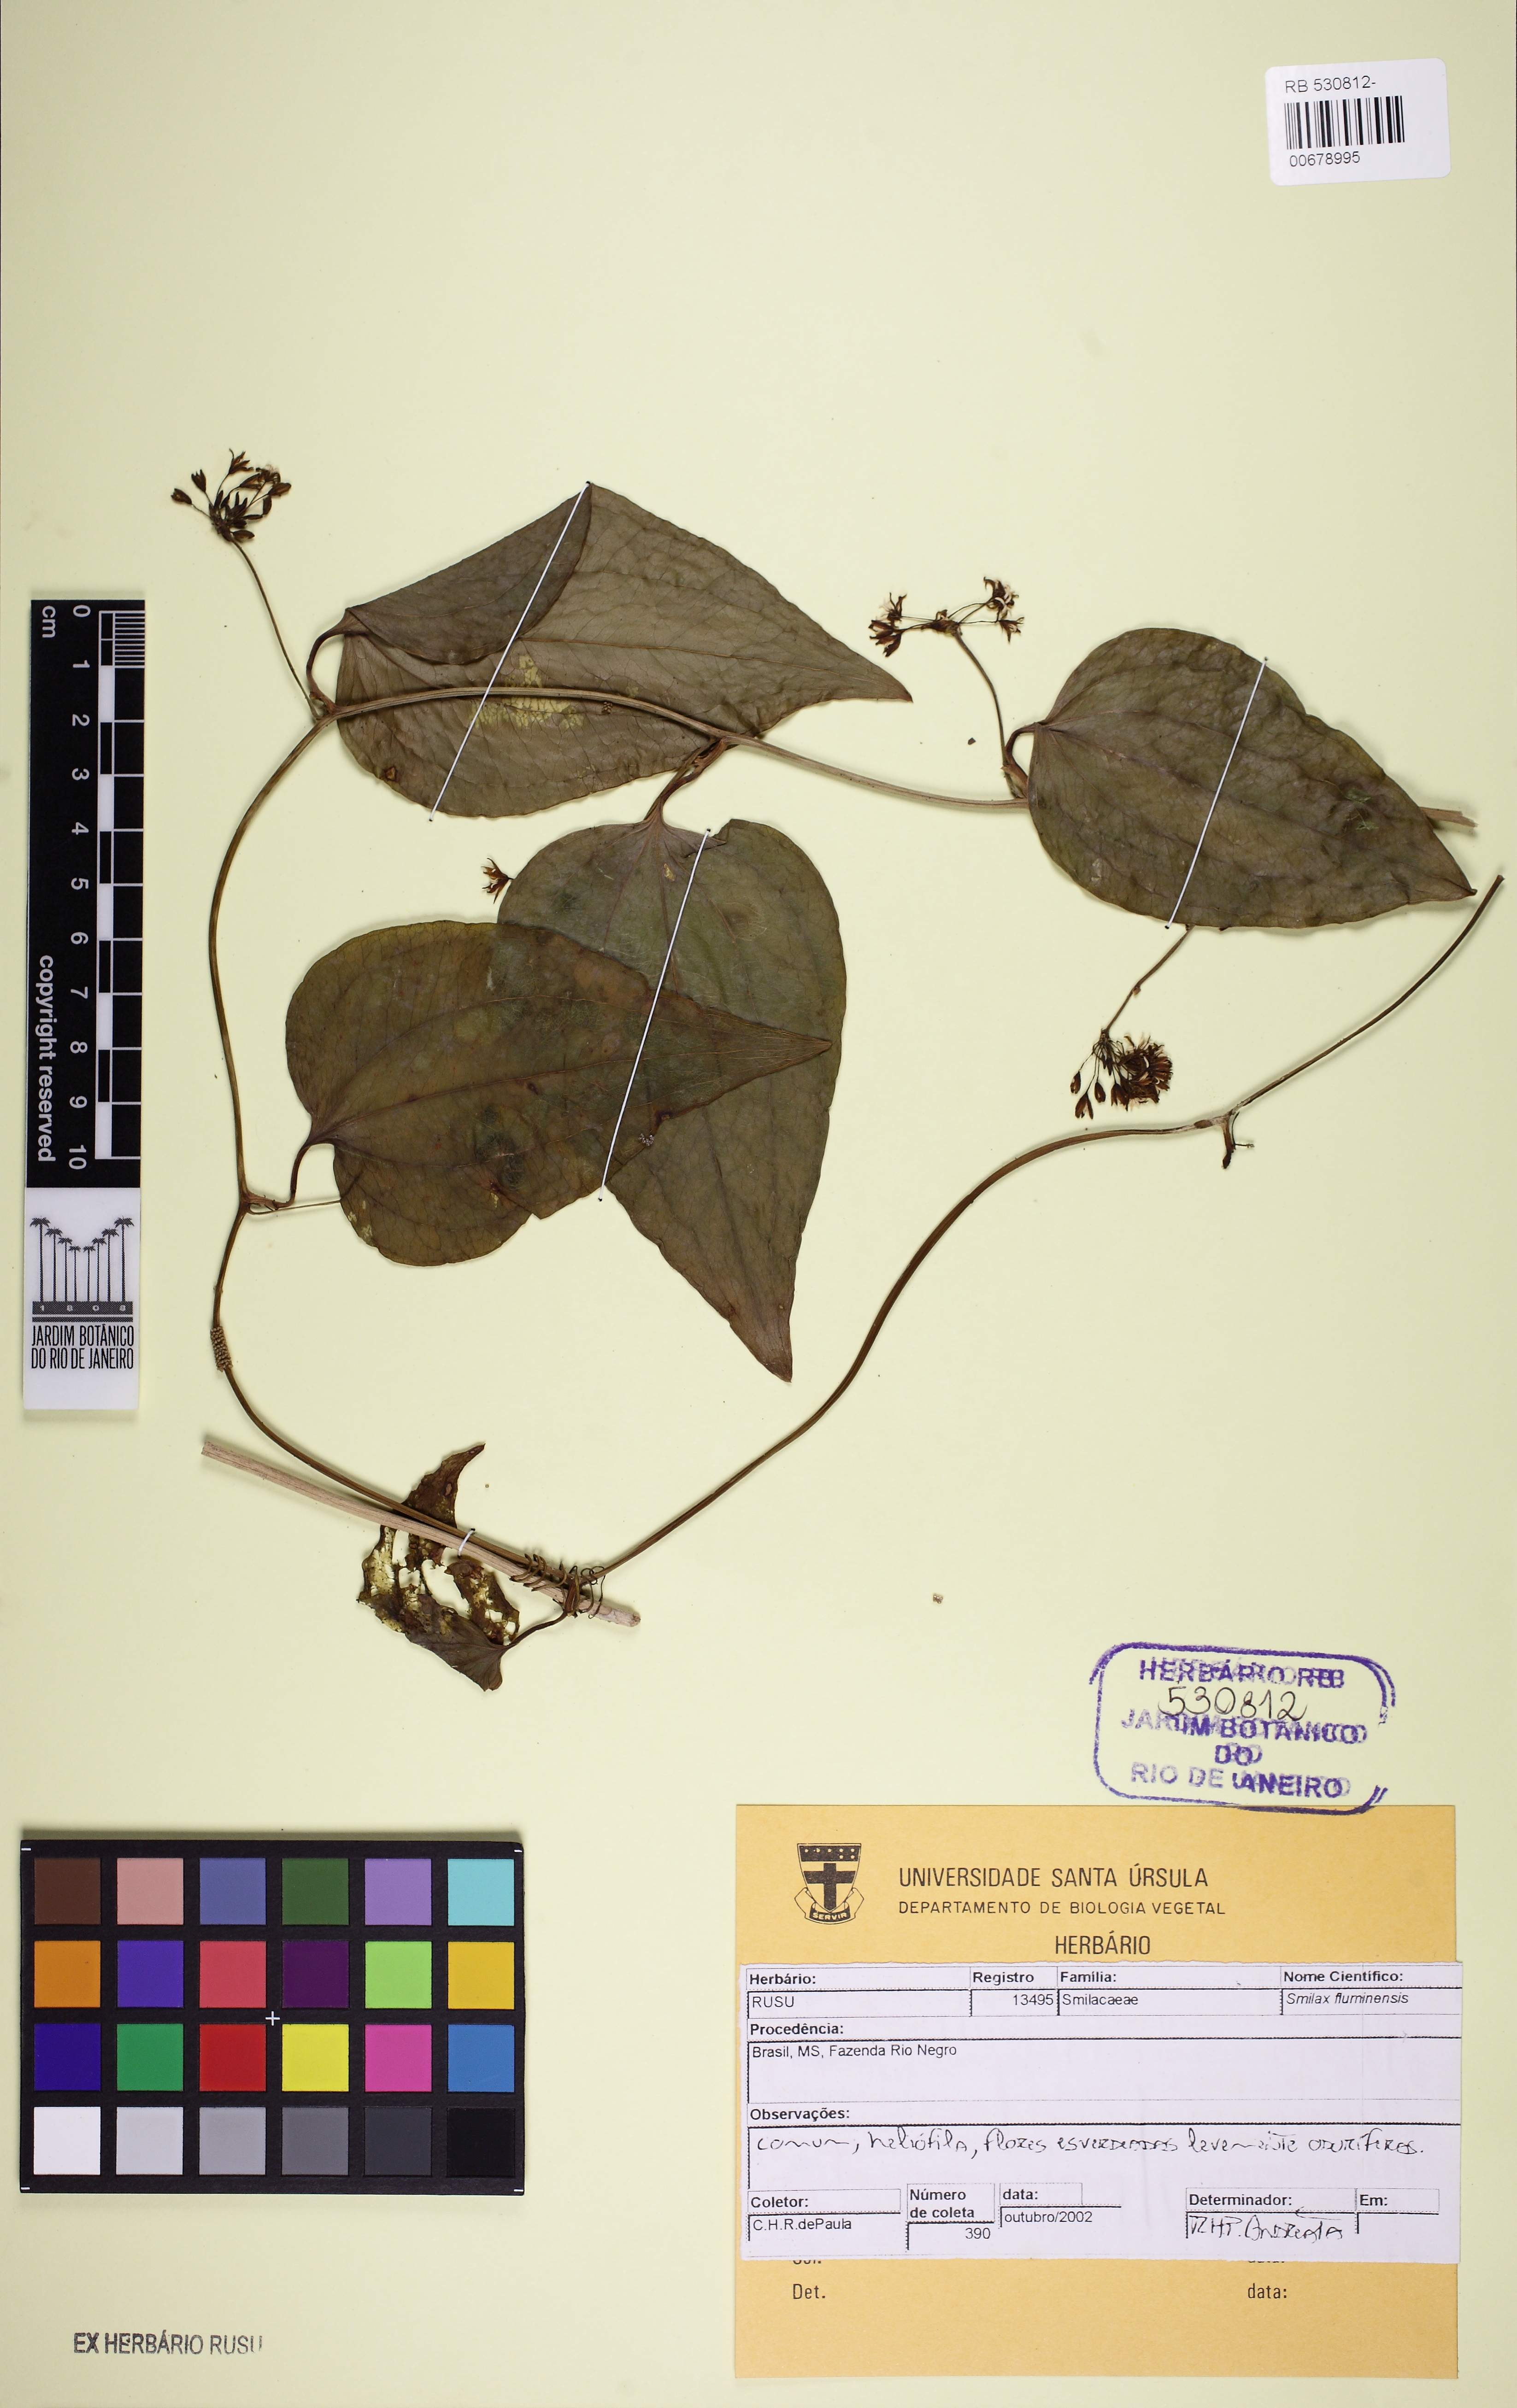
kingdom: Plantae
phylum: Tracheophyta
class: Liliopsida
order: Liliales
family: Smilacaceae
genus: Smilax
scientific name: Smilax fluminensis
